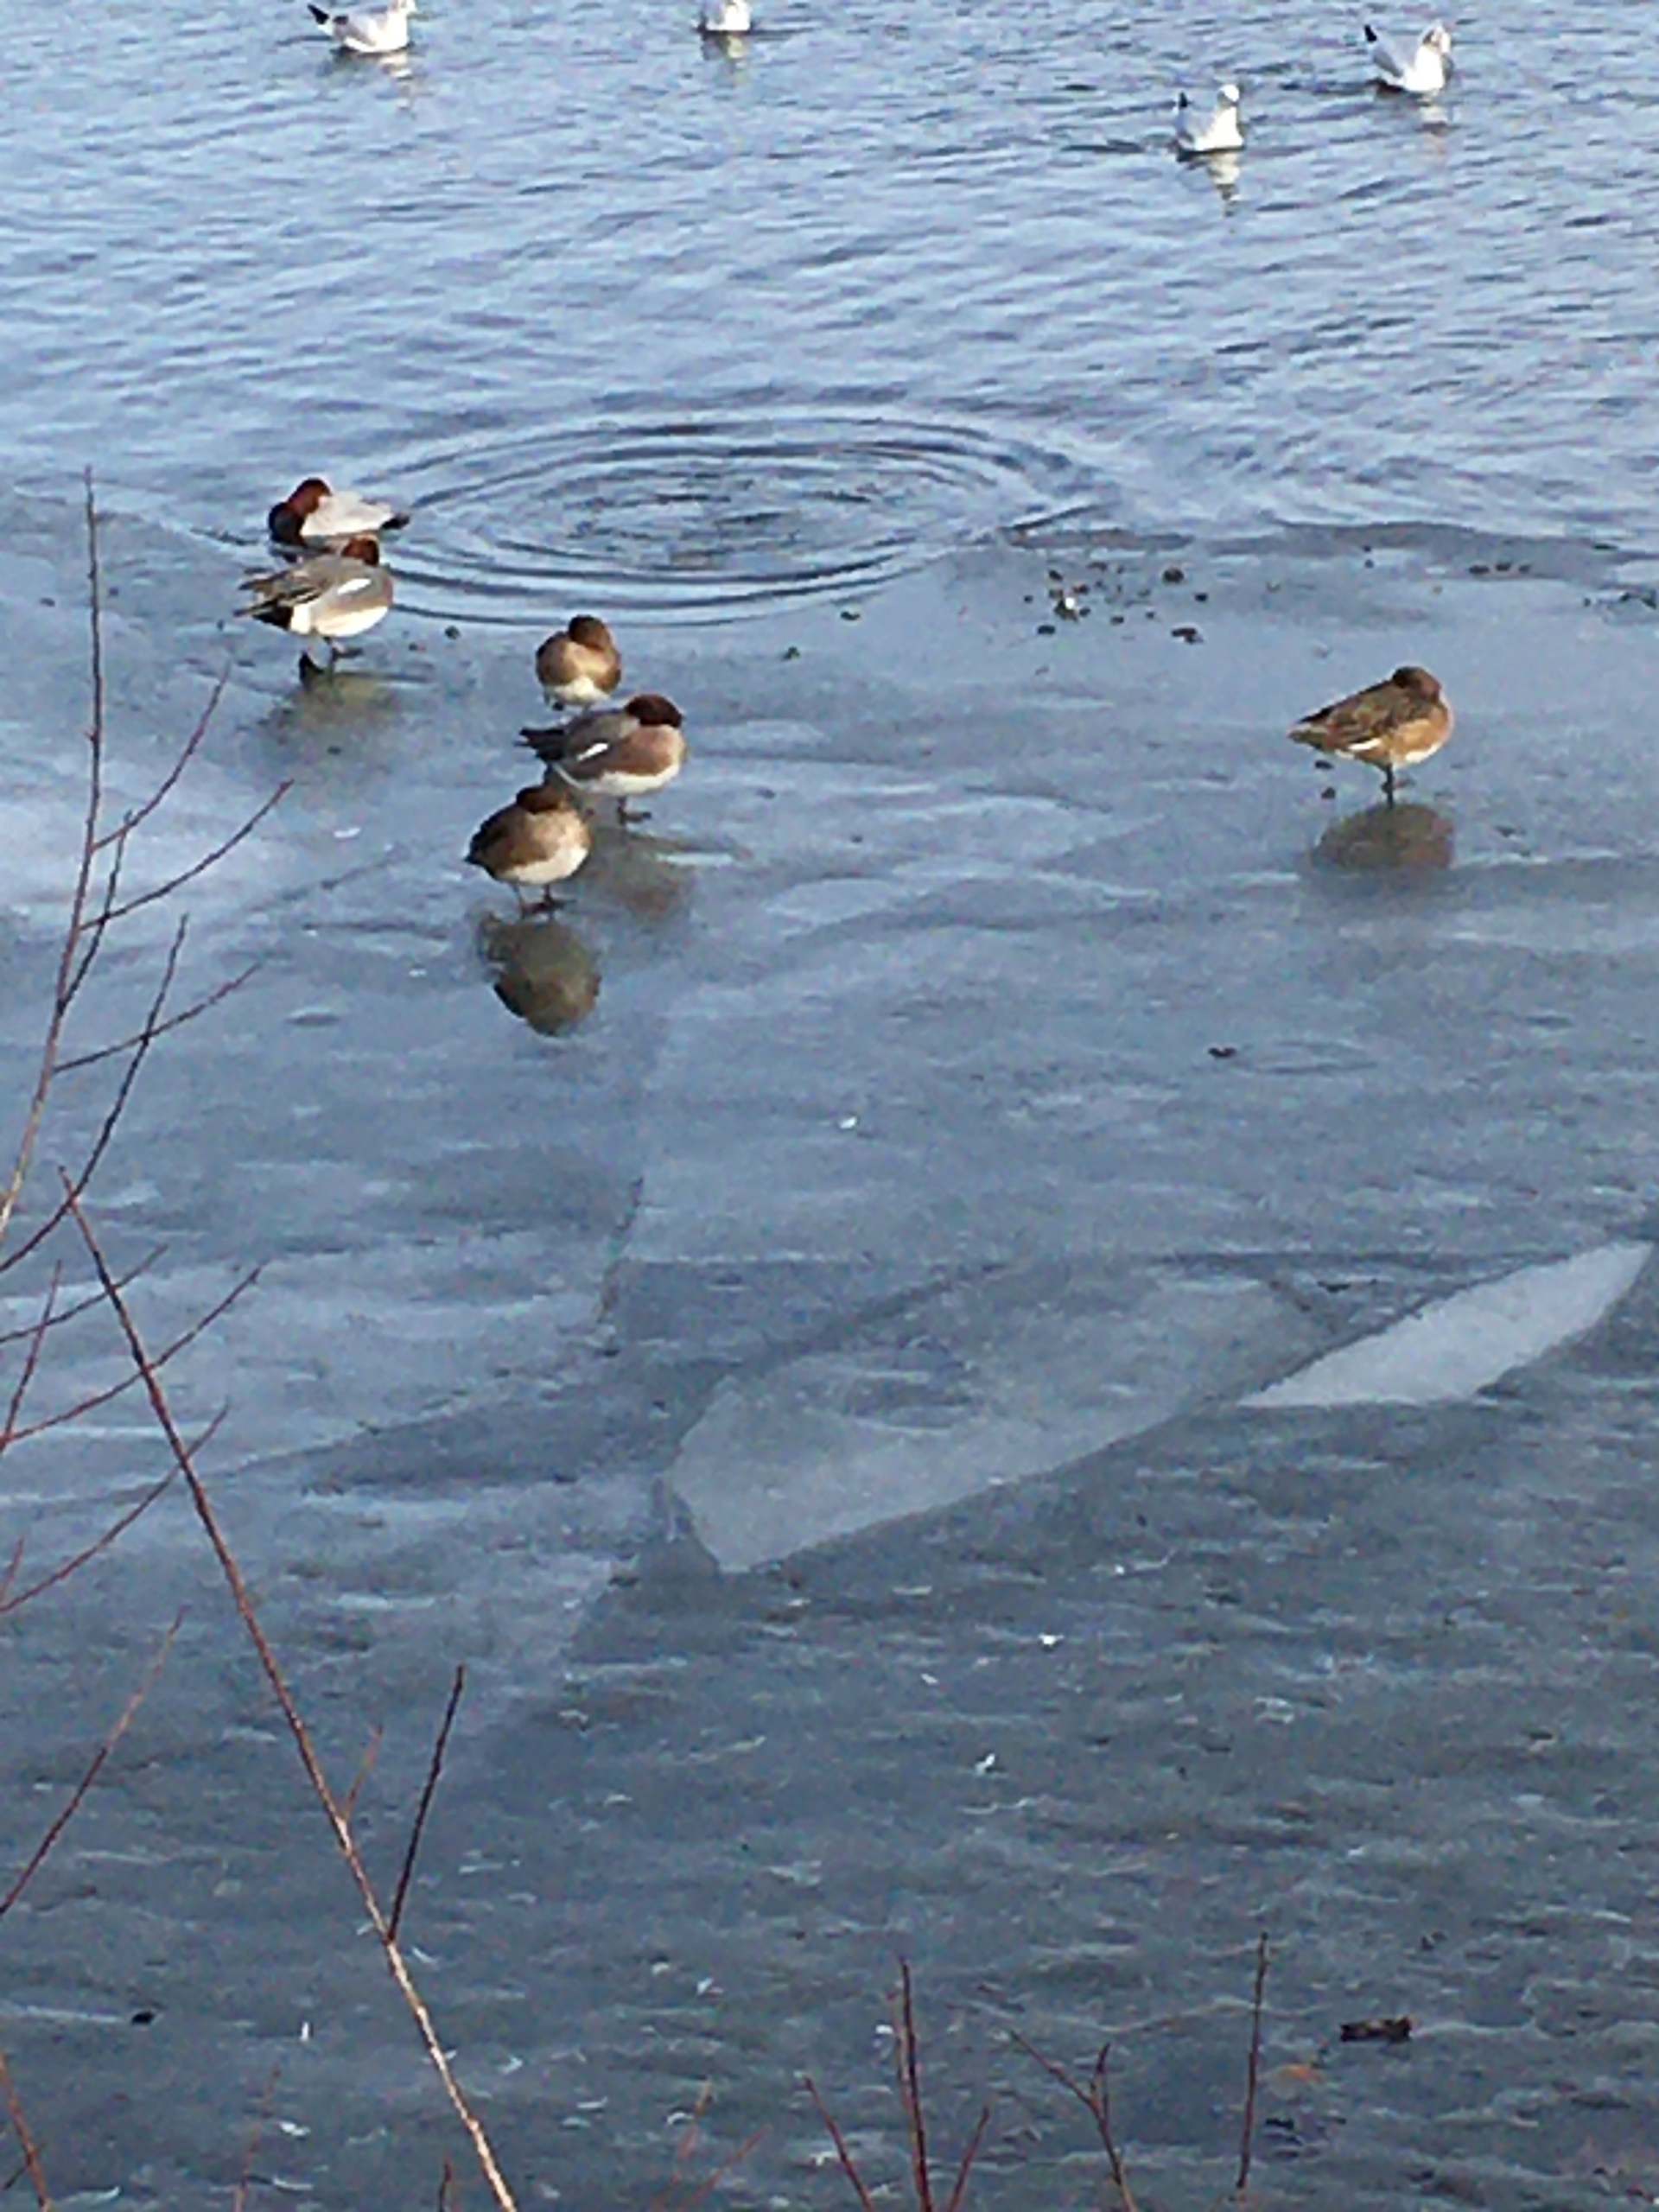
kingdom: Animalia
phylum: Chordata
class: Aves
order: Anseriformes
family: Anatidae
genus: Mareca
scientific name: Mareca penelope
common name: Pibeand
